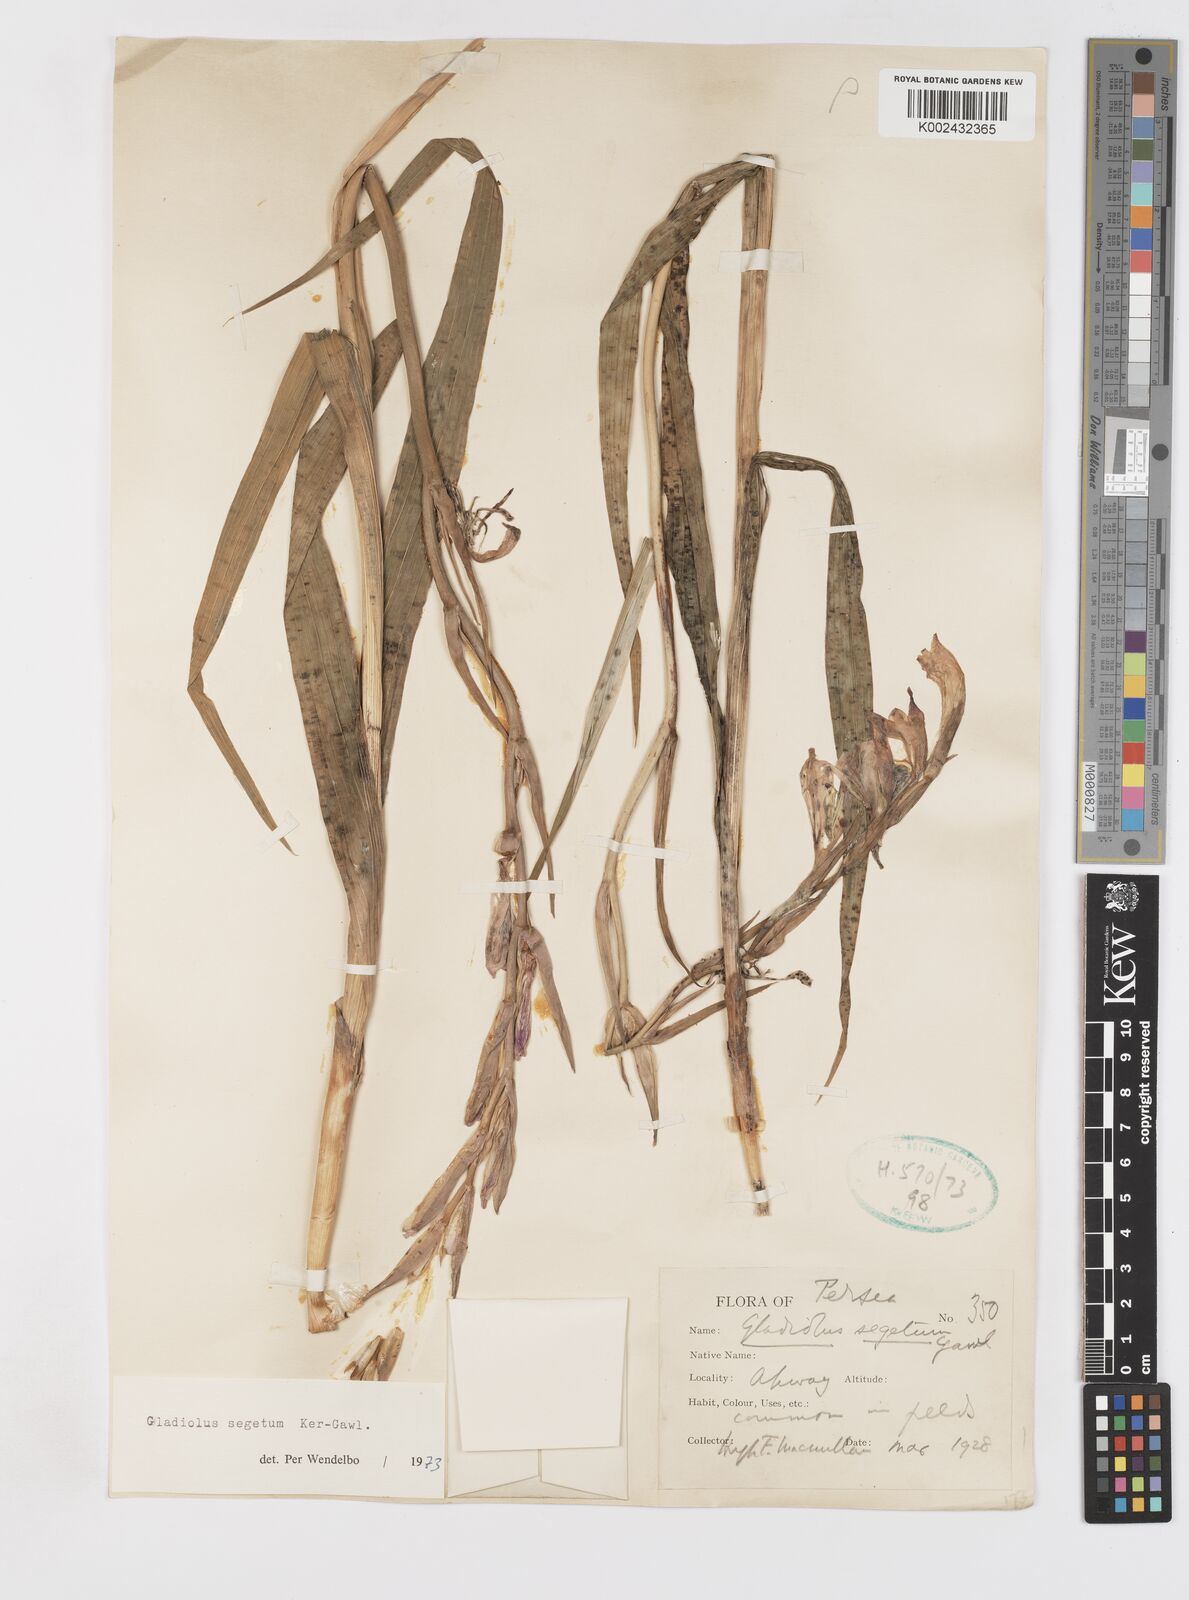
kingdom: Plantae
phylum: Tracheophyta
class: Liliopsida
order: Asparagales
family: Iridaceae
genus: Gladiolus
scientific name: Gladiolus italicus
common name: Field gladiolus
